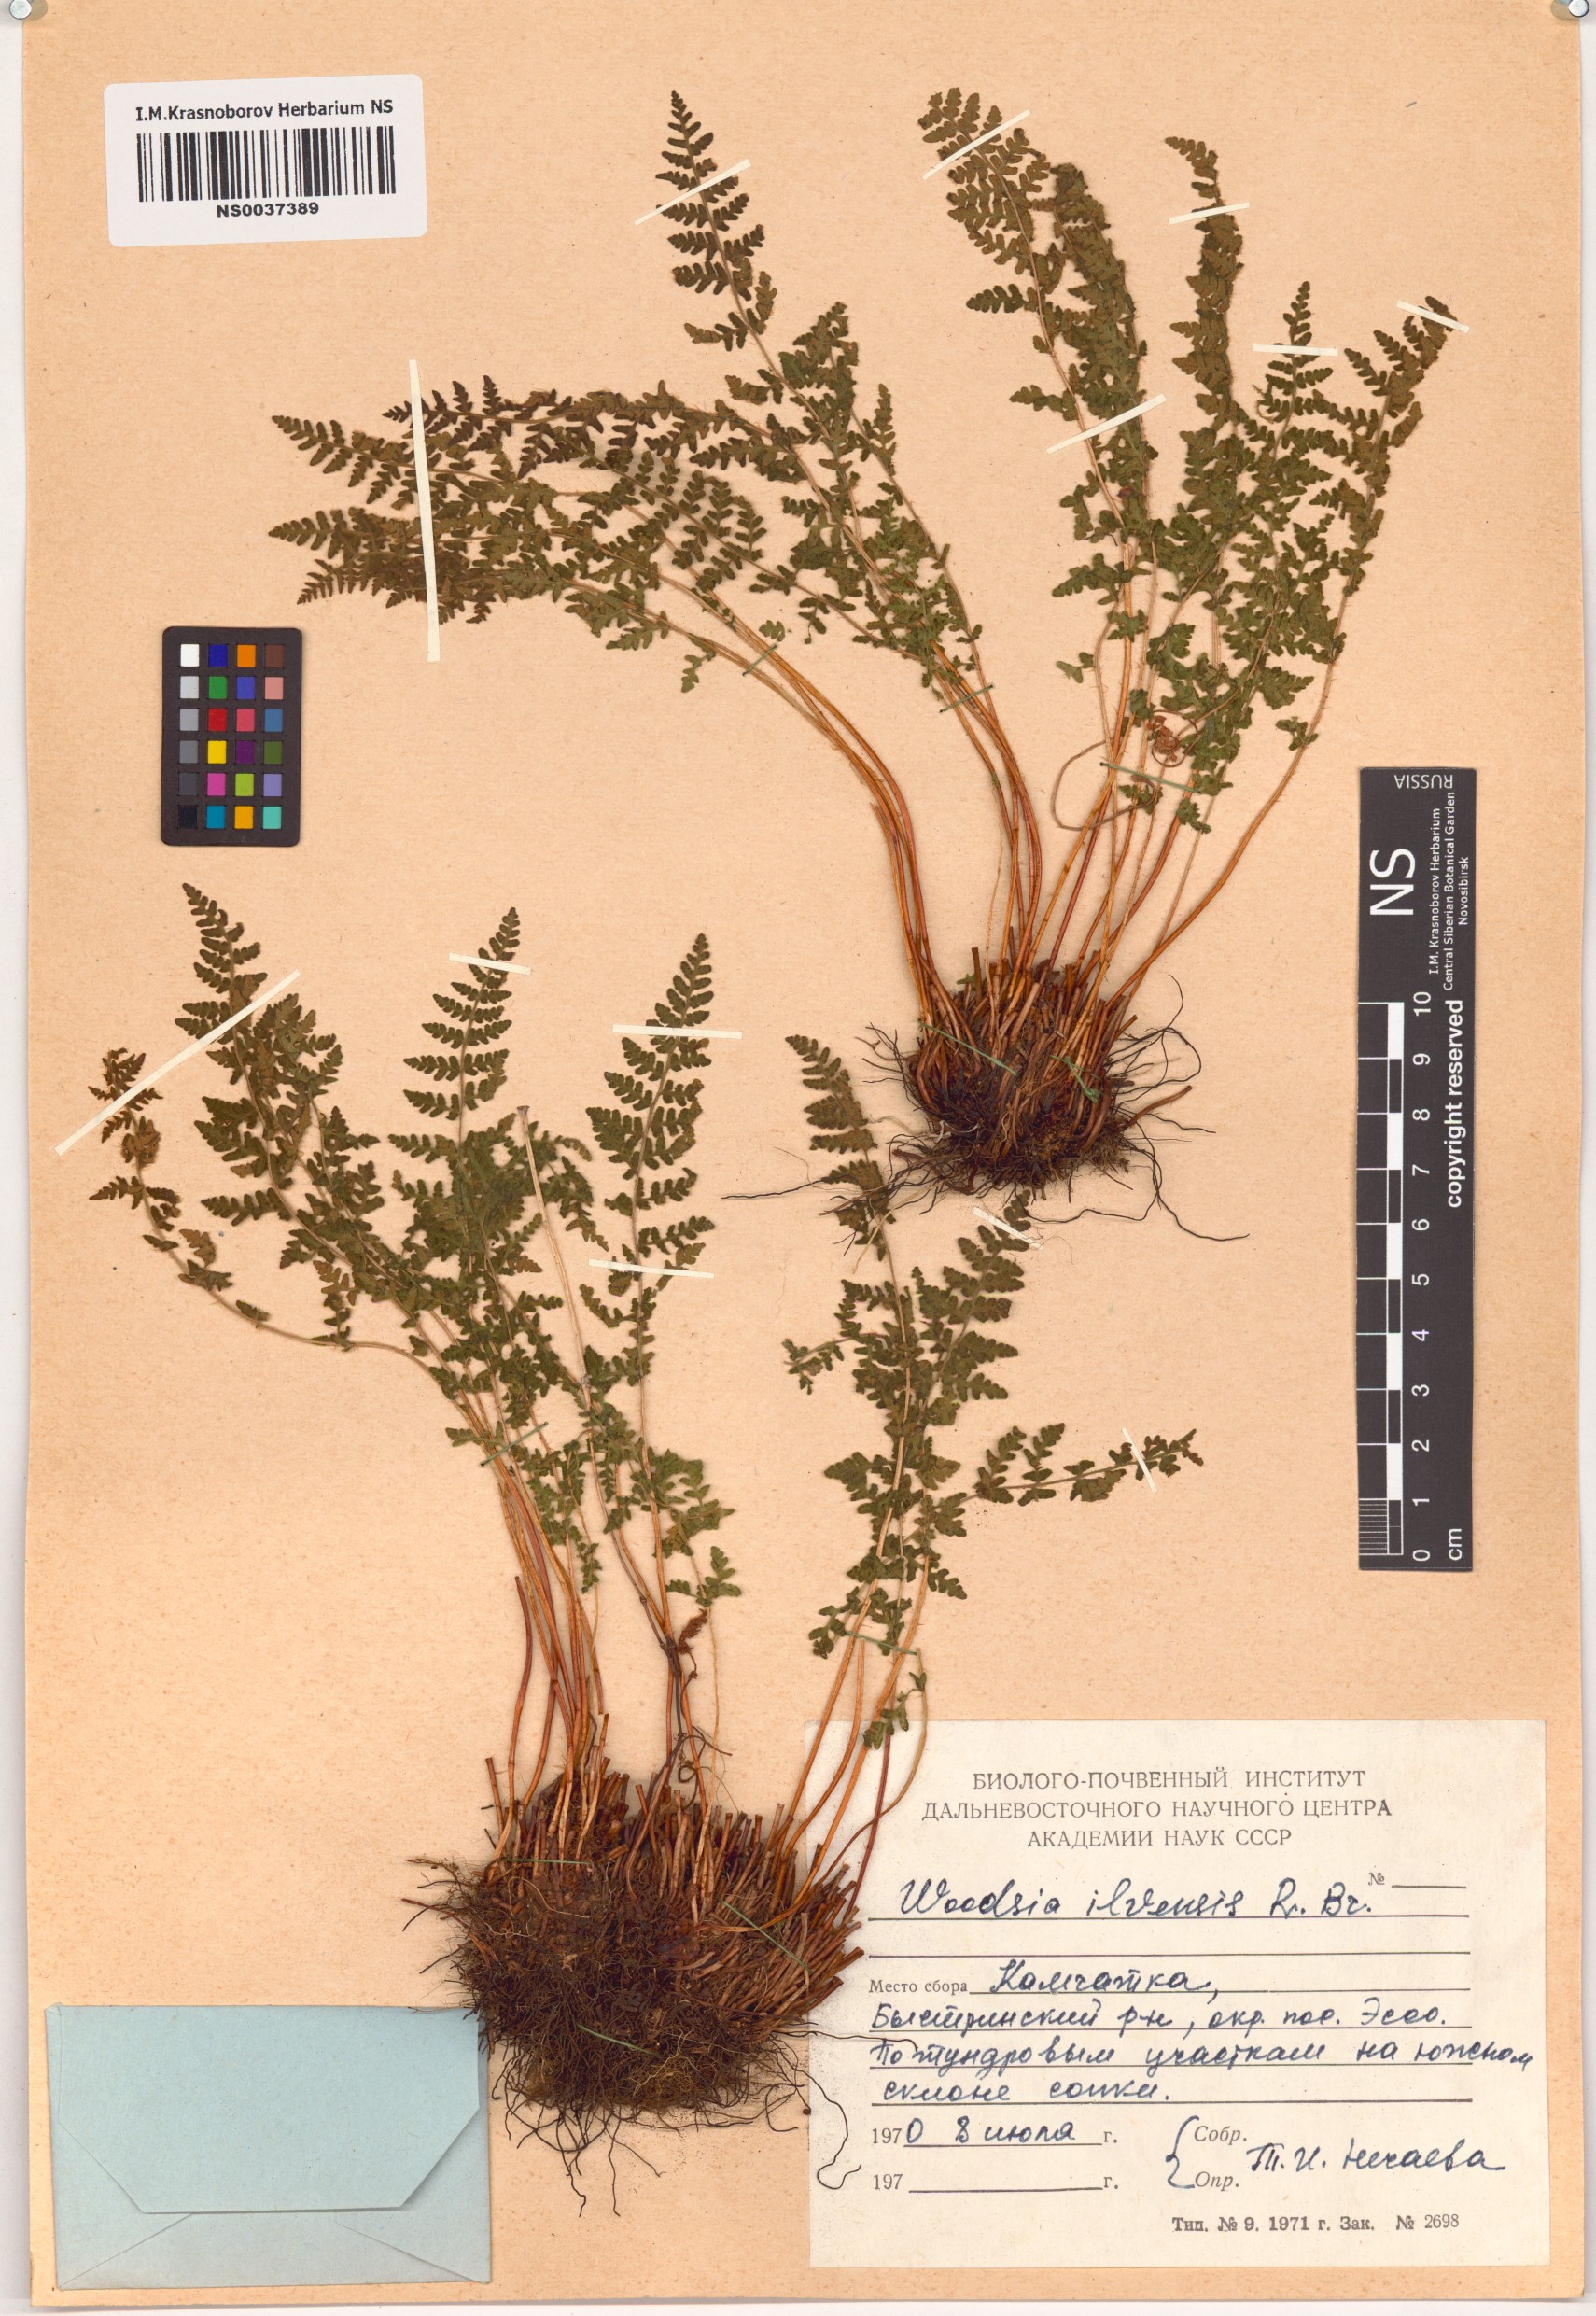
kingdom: Plantae
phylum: Tracheophyta
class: Polypodiopsida
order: Polypodiales
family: Woodsiaceae
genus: Woodsia
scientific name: Woodsia ilvensis
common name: Fragrant woodsia
